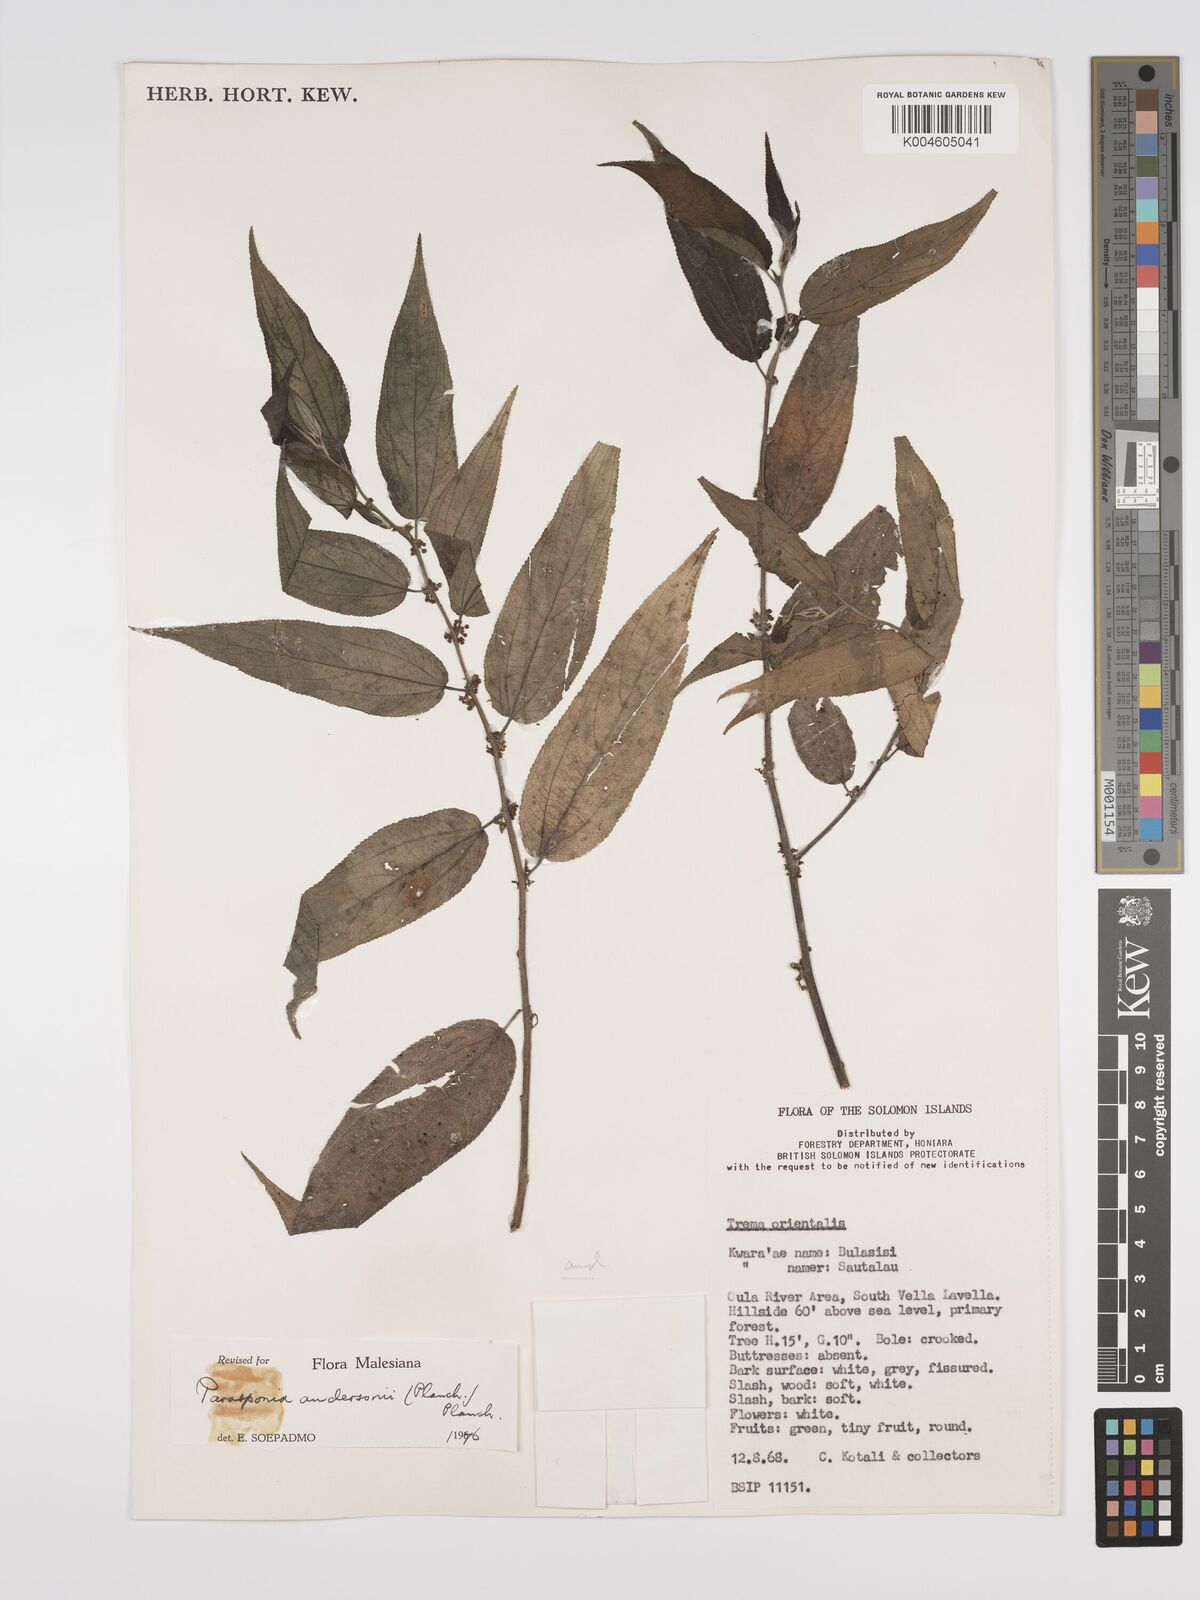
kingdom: Plantae
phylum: Tracheophyta
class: Magnoliopsida
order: Rosales
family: Cannabaceae
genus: Trema
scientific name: Trema andersonii
